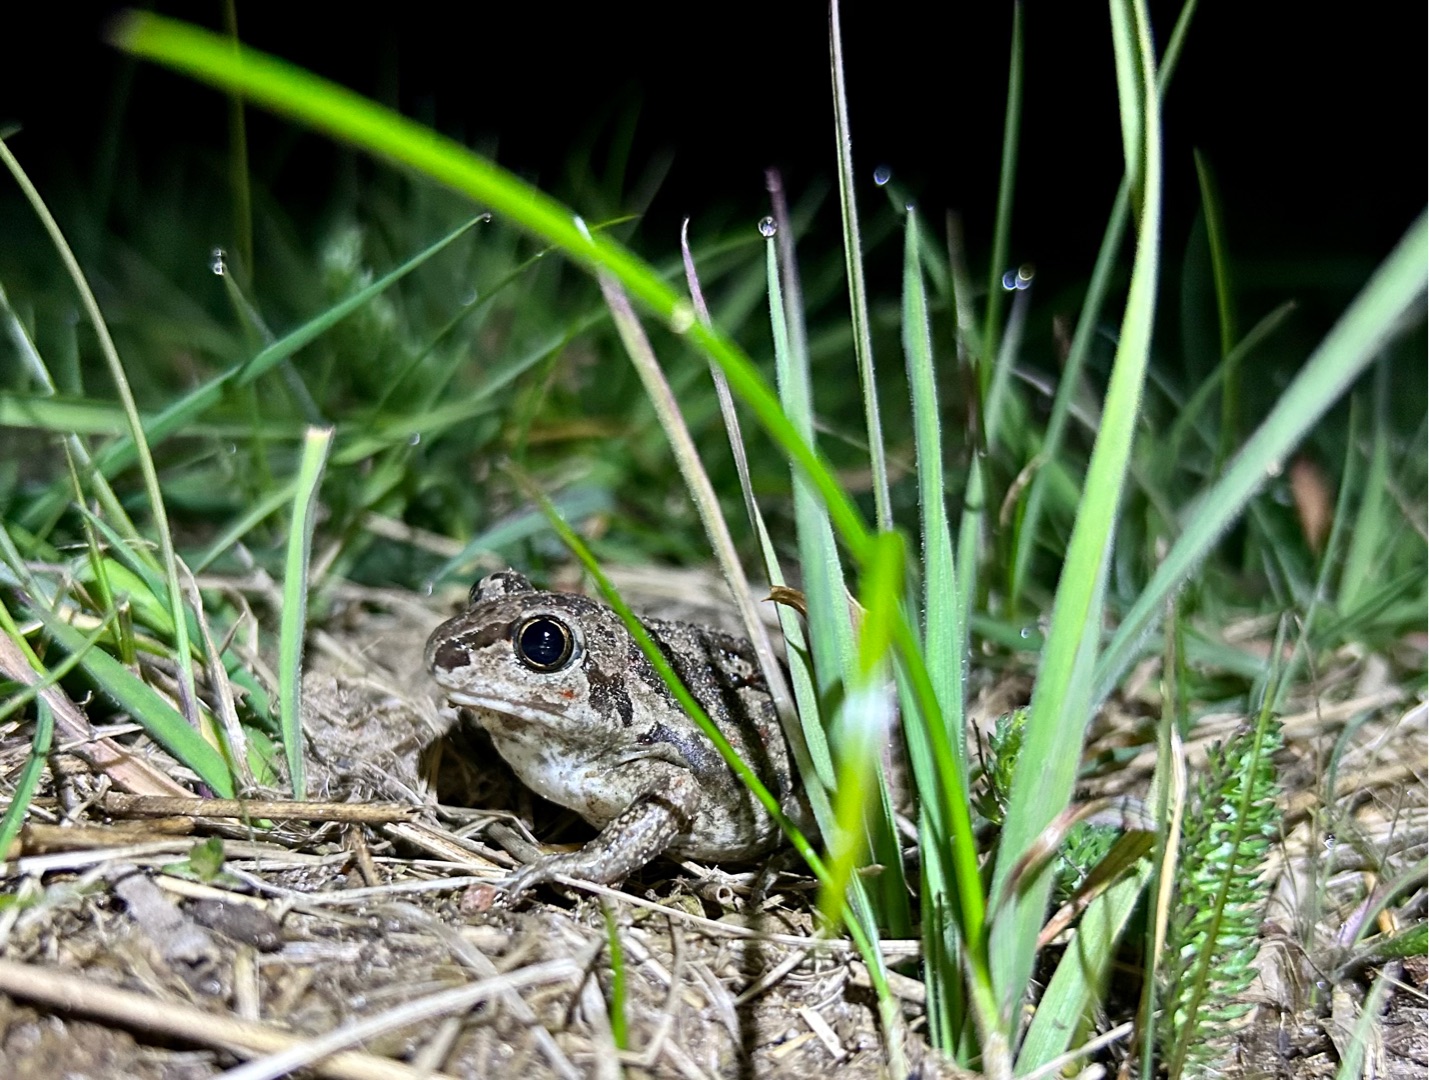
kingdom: Animalia
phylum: Chordata
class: Amphibia
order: Anura
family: Pelobatidae
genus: Pelobates
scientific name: Pelobates fuscus
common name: Løgfrø
